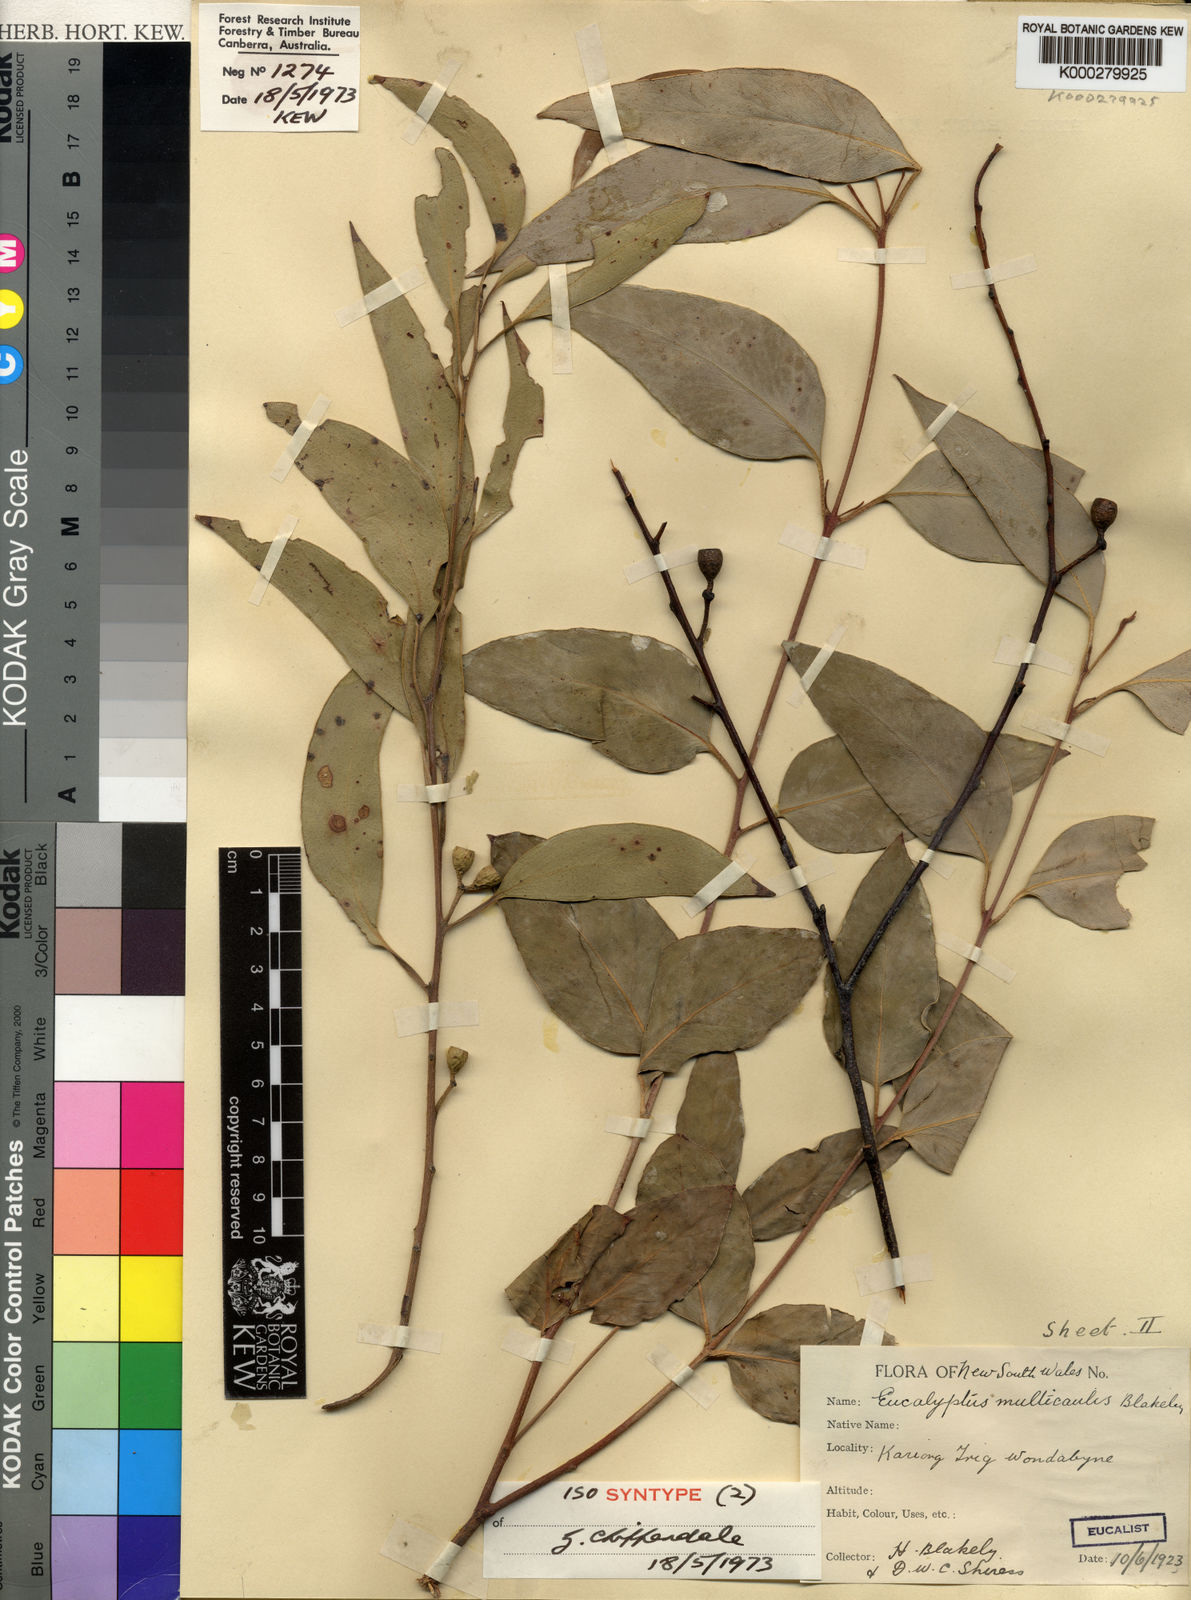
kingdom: Plantae
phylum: Tracheophyta
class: Magnoliopsida
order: Myrtales
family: Myrtaceae
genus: Eucalyptus
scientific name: Eucalyptus multicaulis
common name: Whipstick mallee-ash
